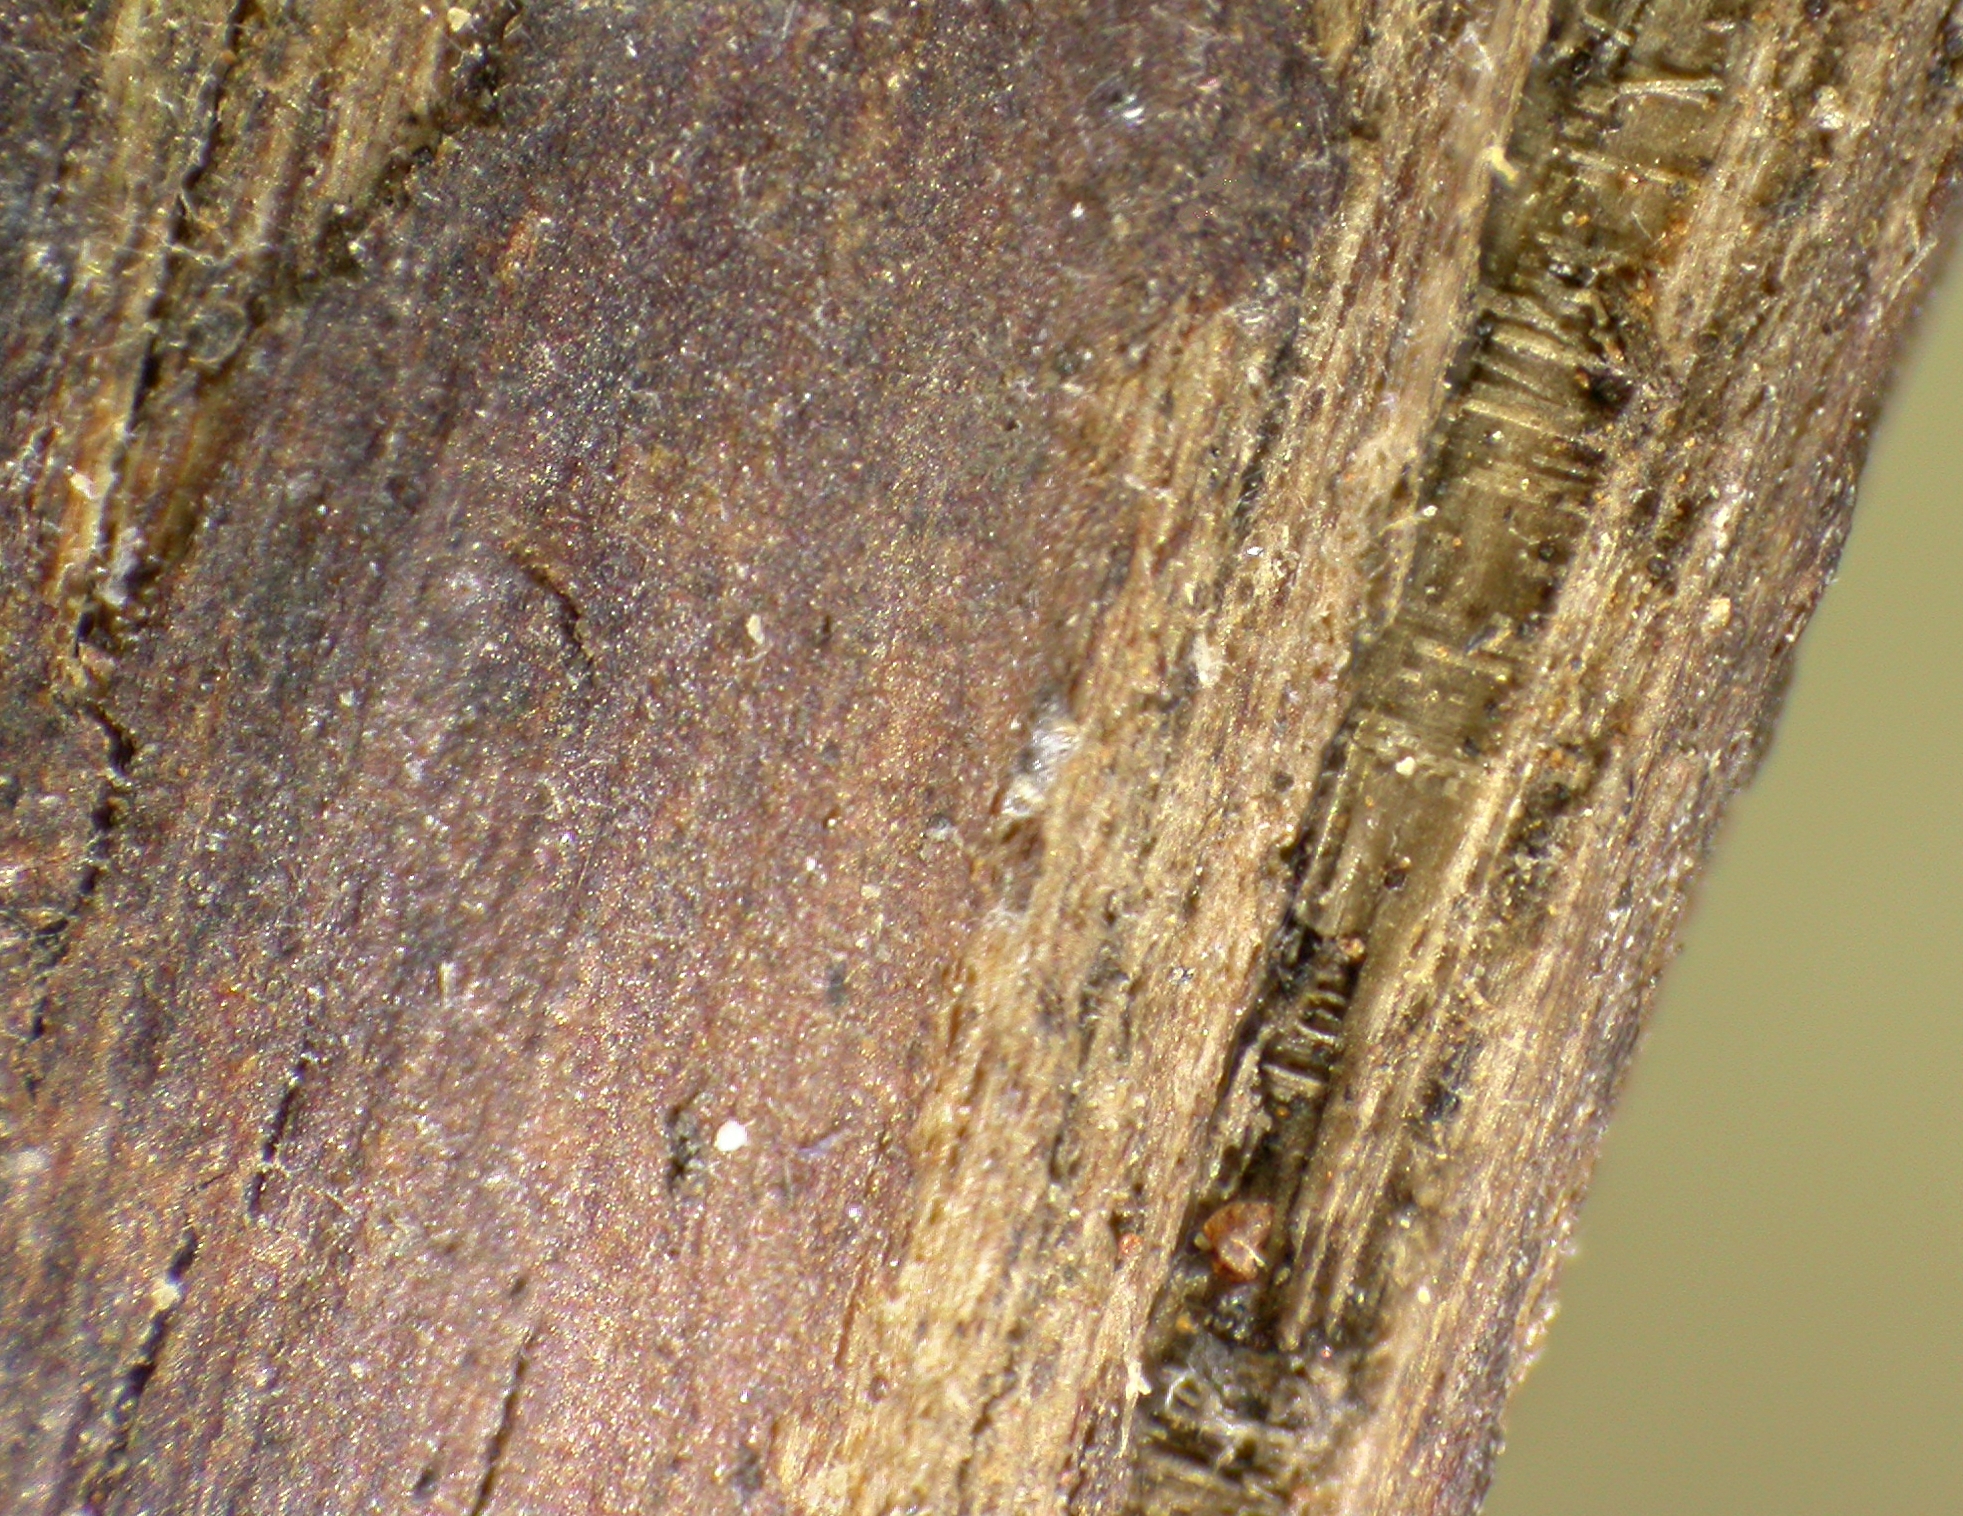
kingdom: Fungi
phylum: Ascomycota
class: Leotiomycetes
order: Helotiales
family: Cenangiaceae
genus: Cenangium
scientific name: Cenangium androsaemi
